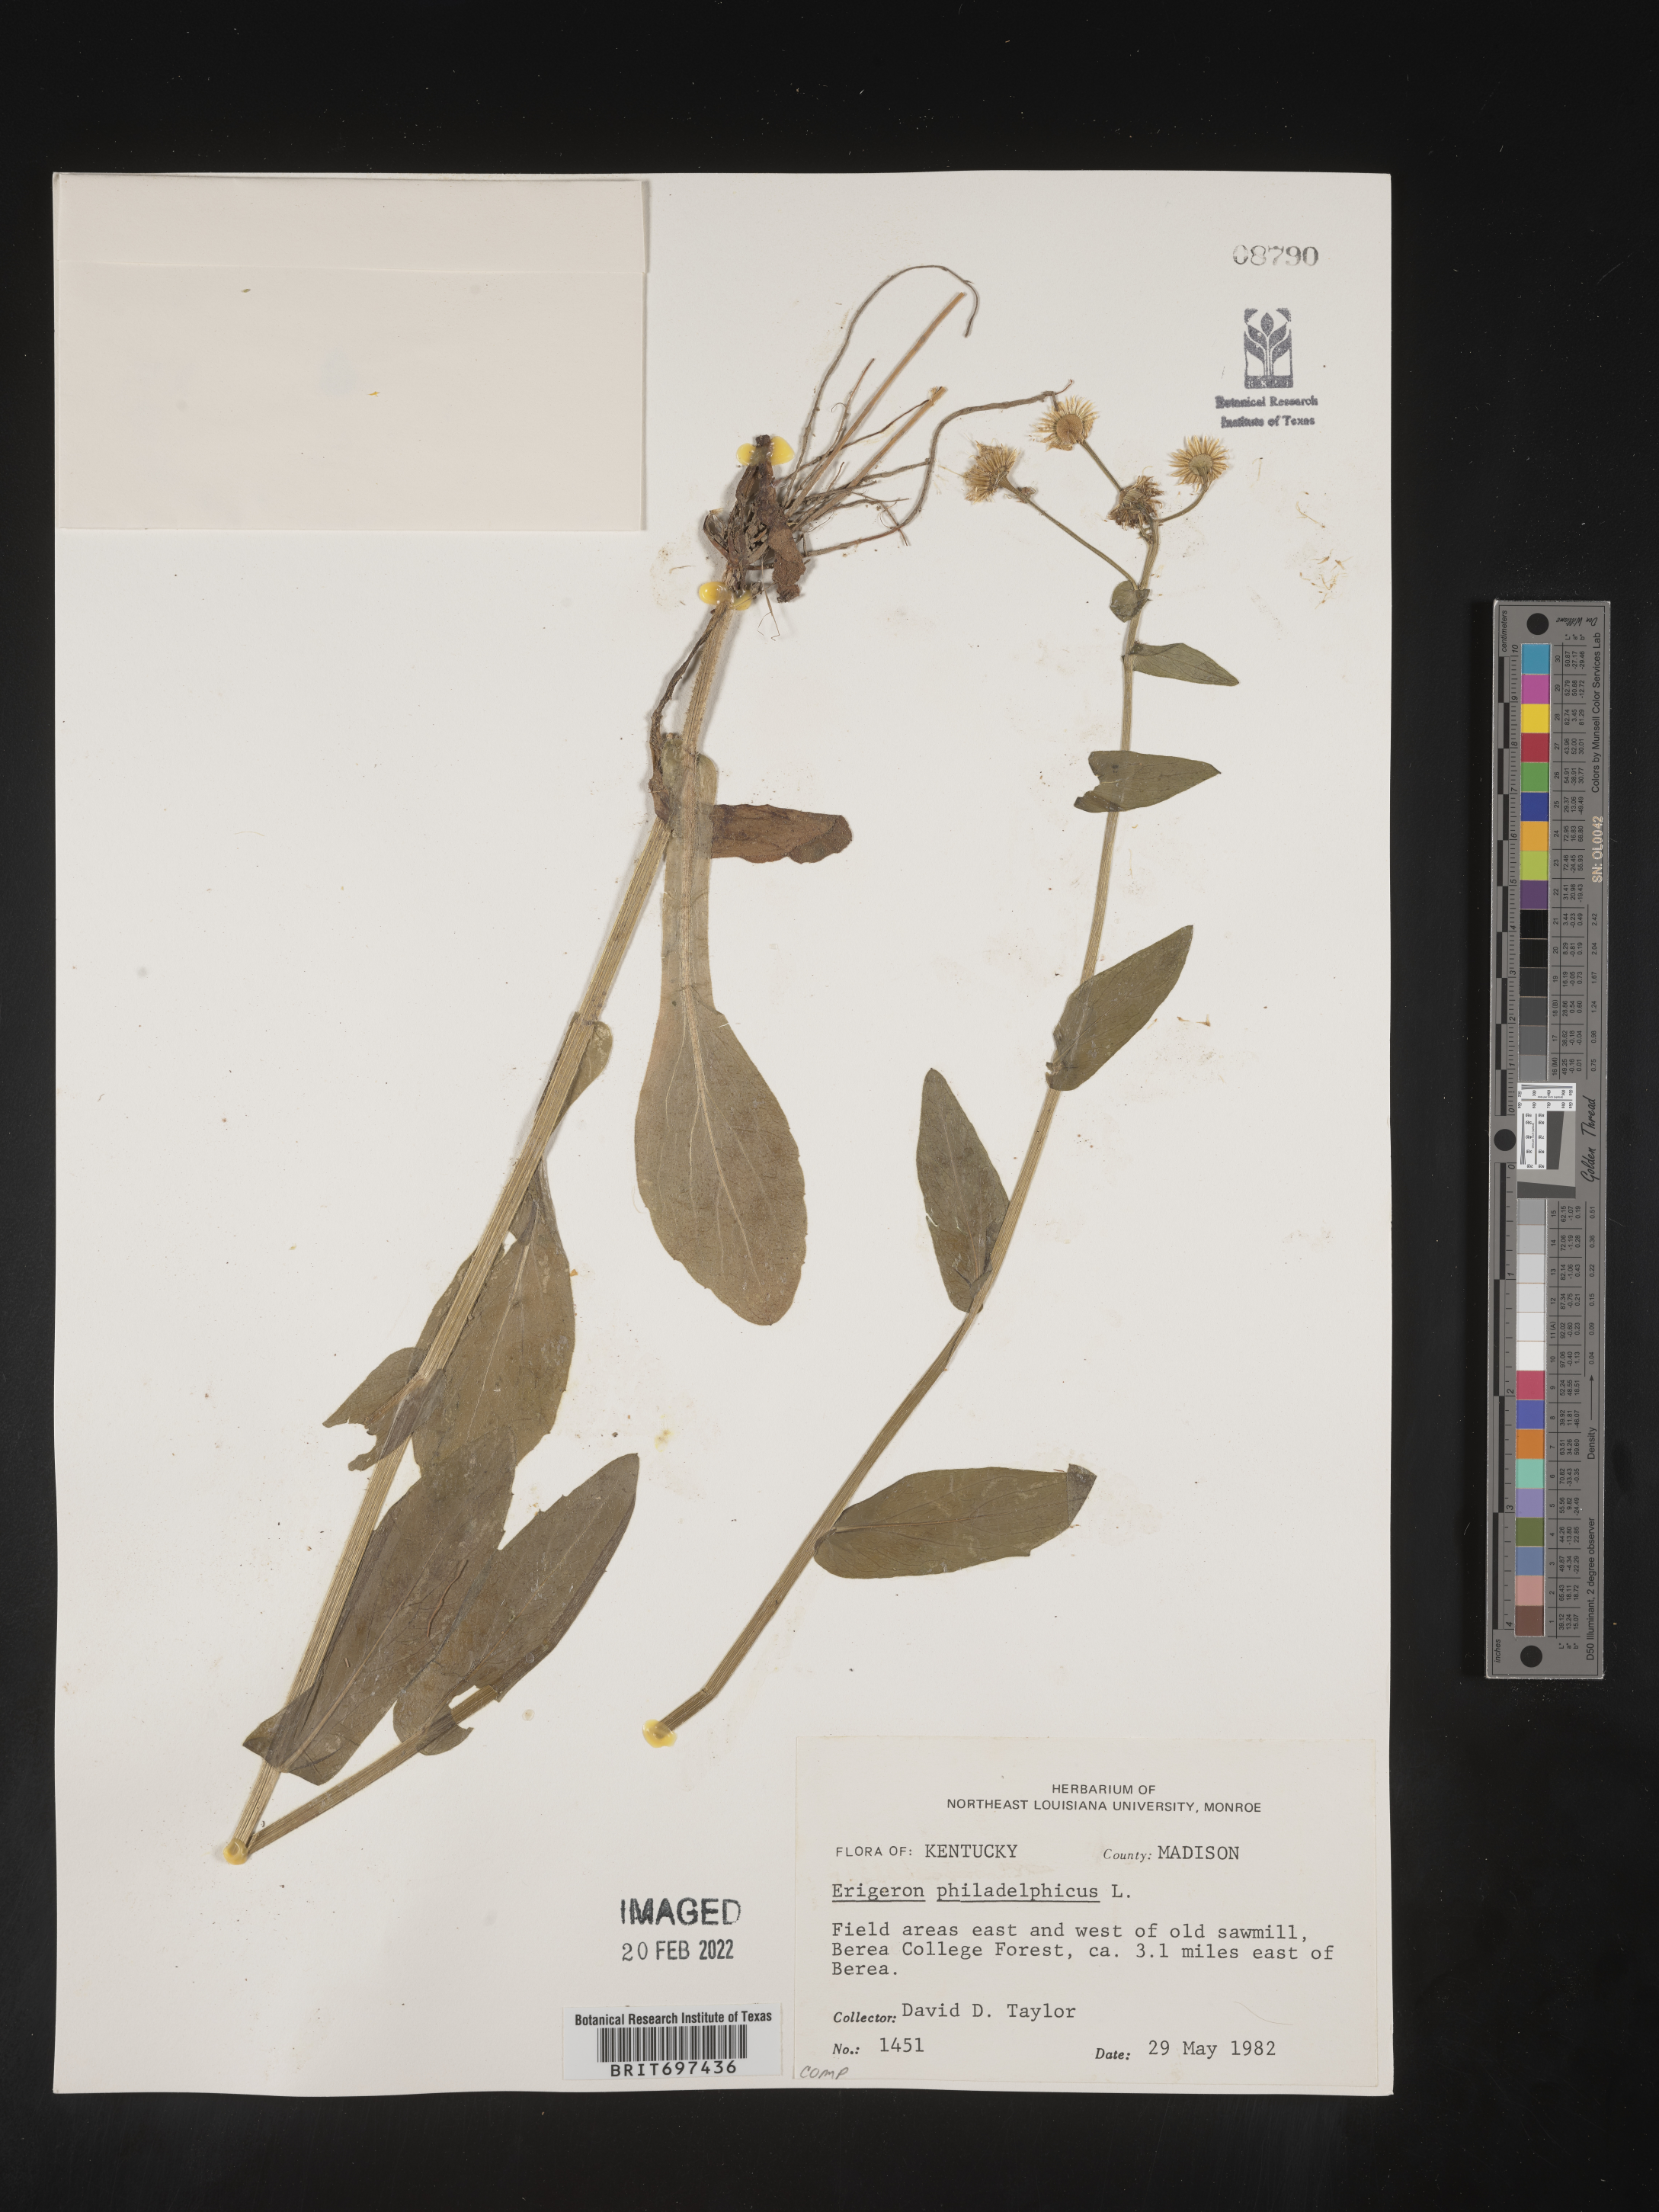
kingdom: Plantae
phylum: Tracheophyta
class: Magnoliopsida
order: Asterales
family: Asteraceae
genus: Erigeron
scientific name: Erigeron philadelphicus
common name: Robin's-plantain
